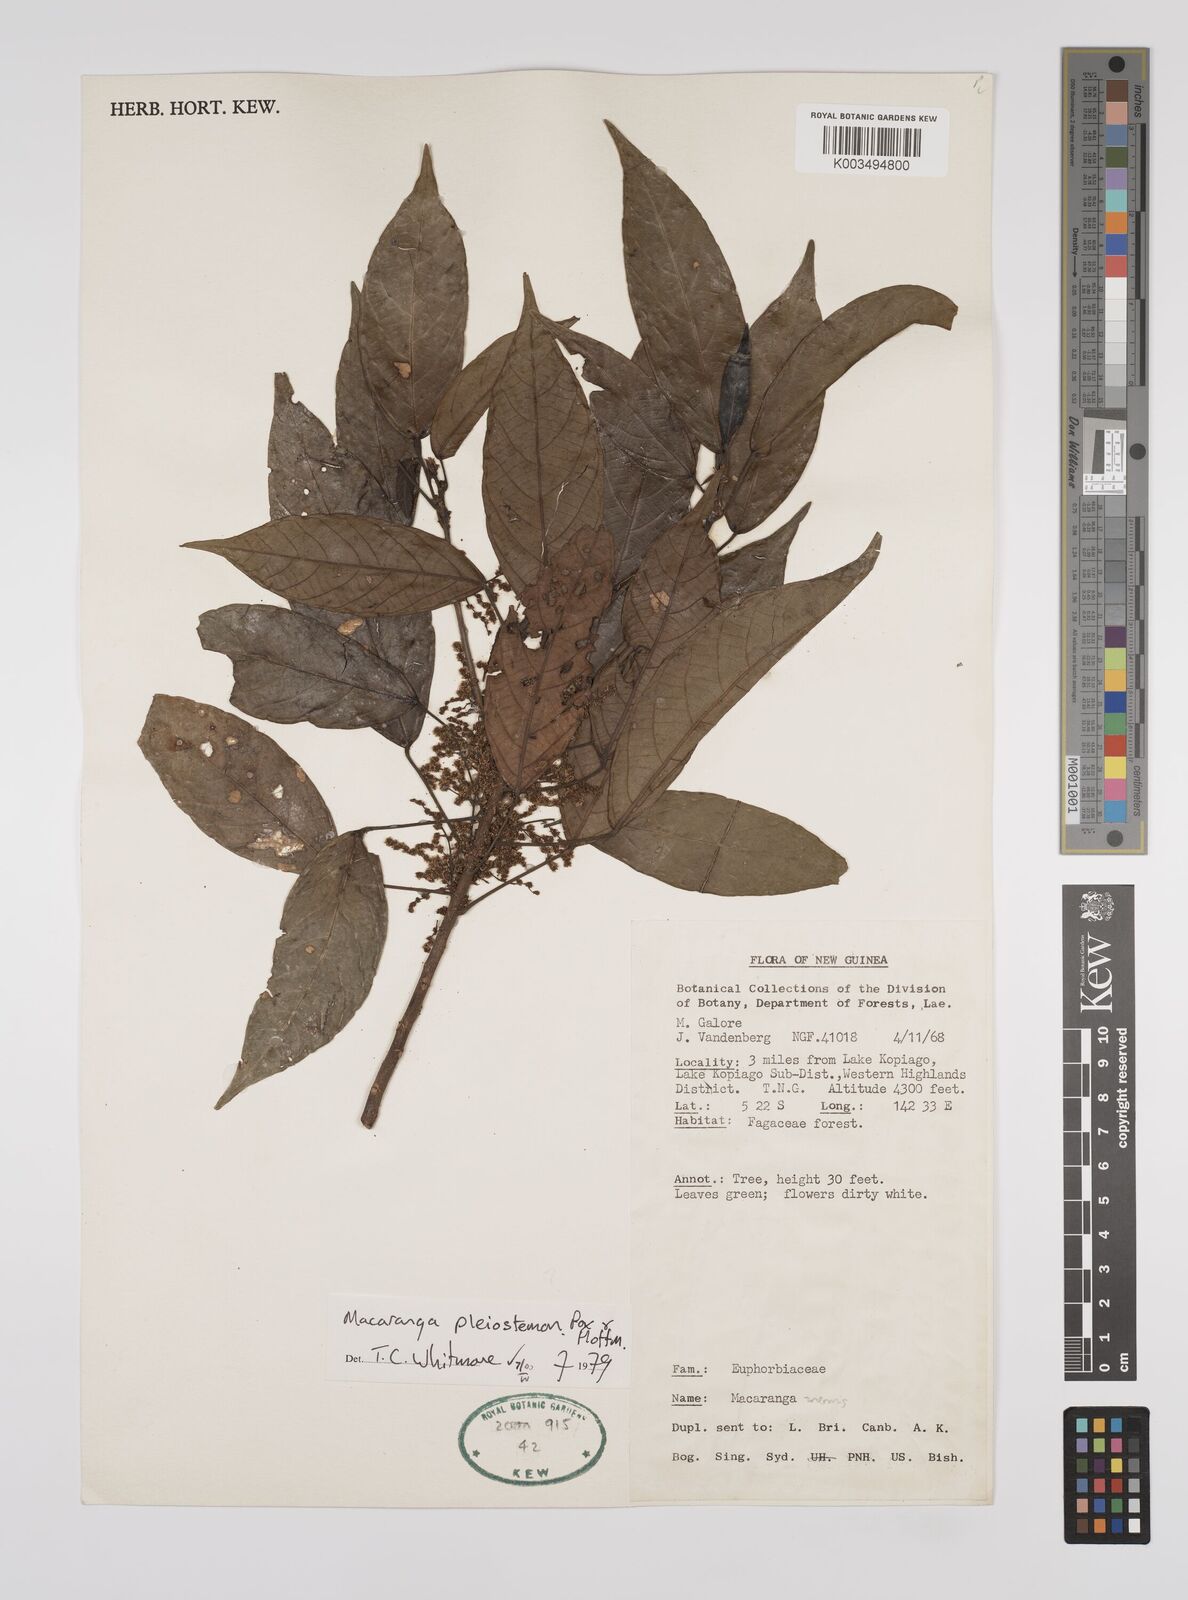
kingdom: Plantae
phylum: Tracheophyta
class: Magnoliopsida
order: Malpighiales
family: Euphorbiaceae
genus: Macaranga
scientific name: Macaranga pleiostemon
